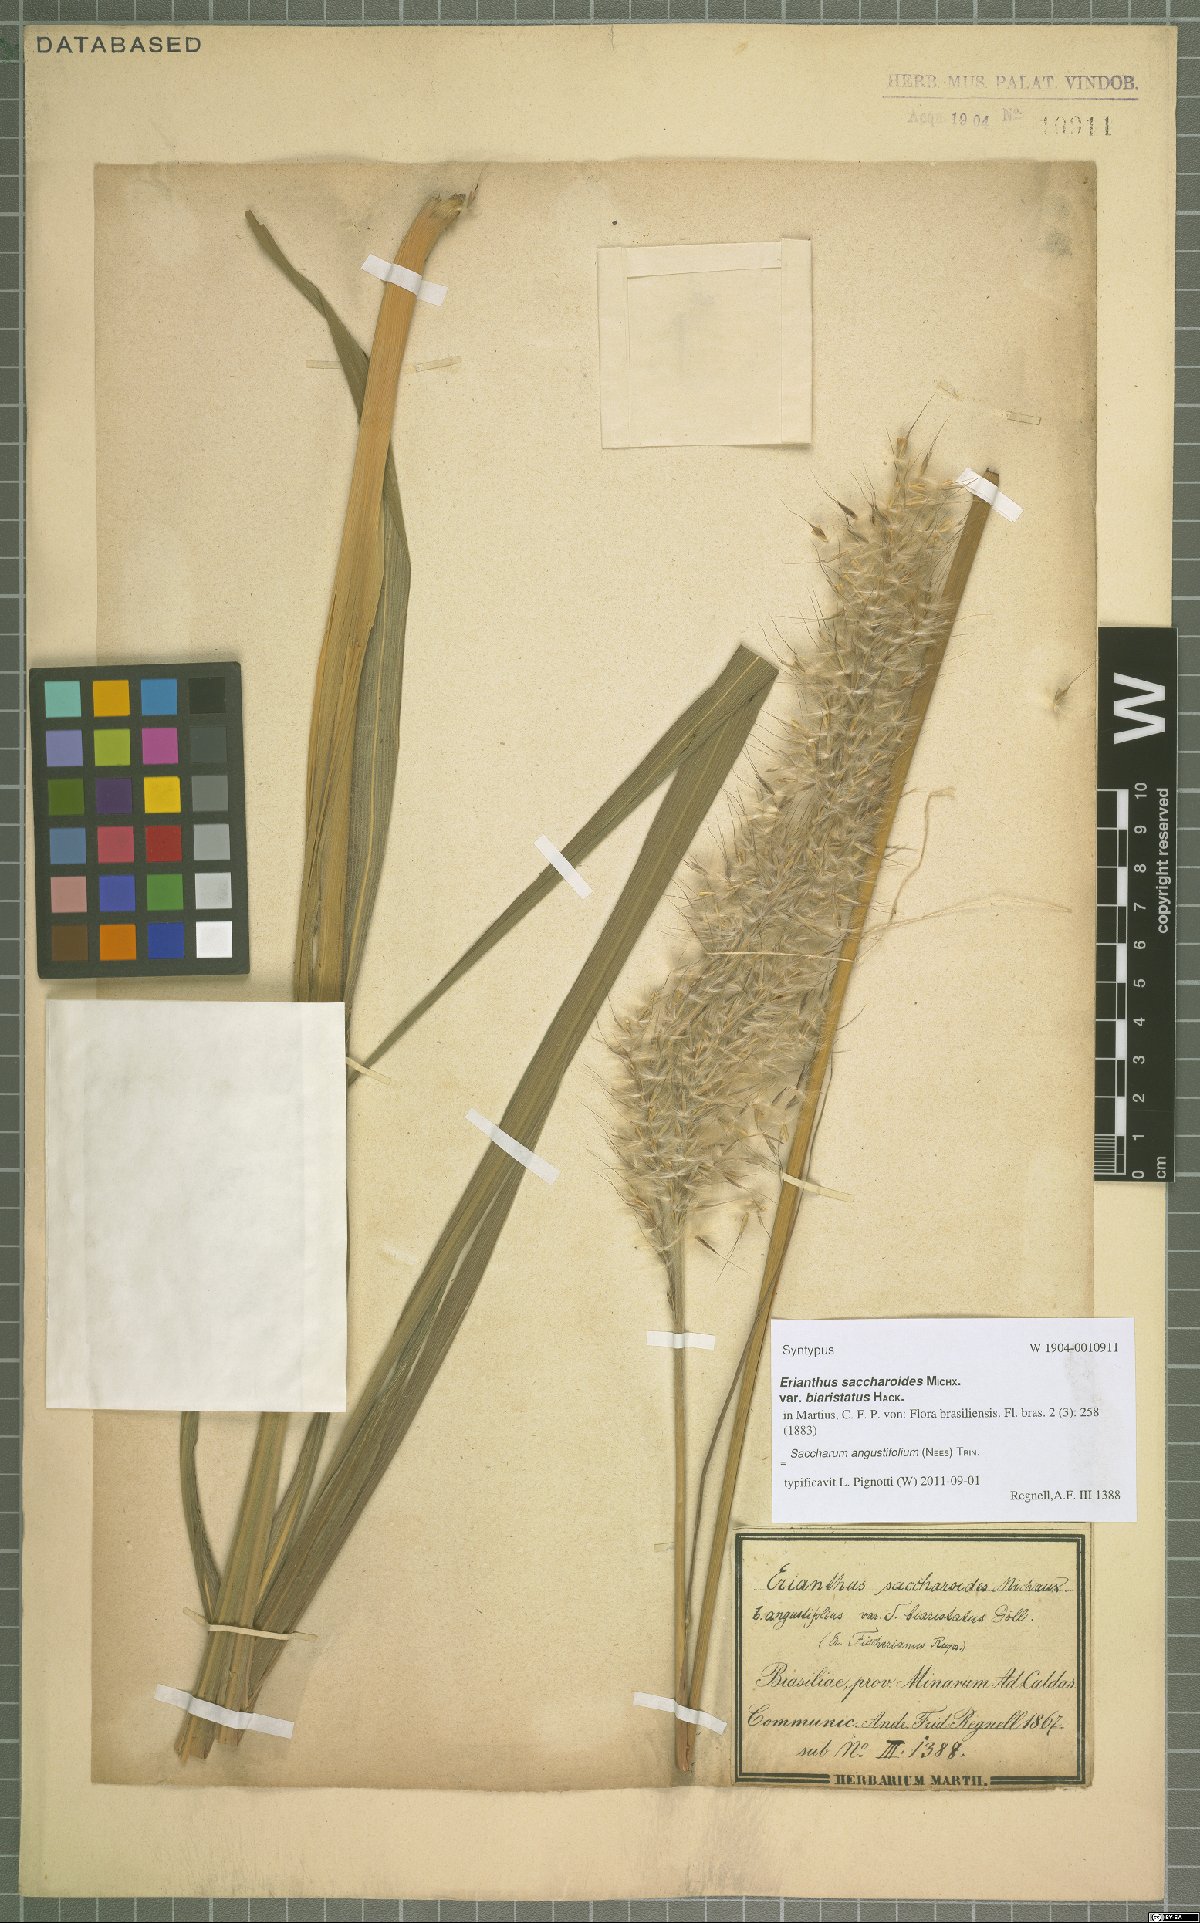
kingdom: Plantae
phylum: Tracheophyta
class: Liliopsida
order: Poales
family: Poaceae
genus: Saccharum
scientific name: Saccharum angustifolium
